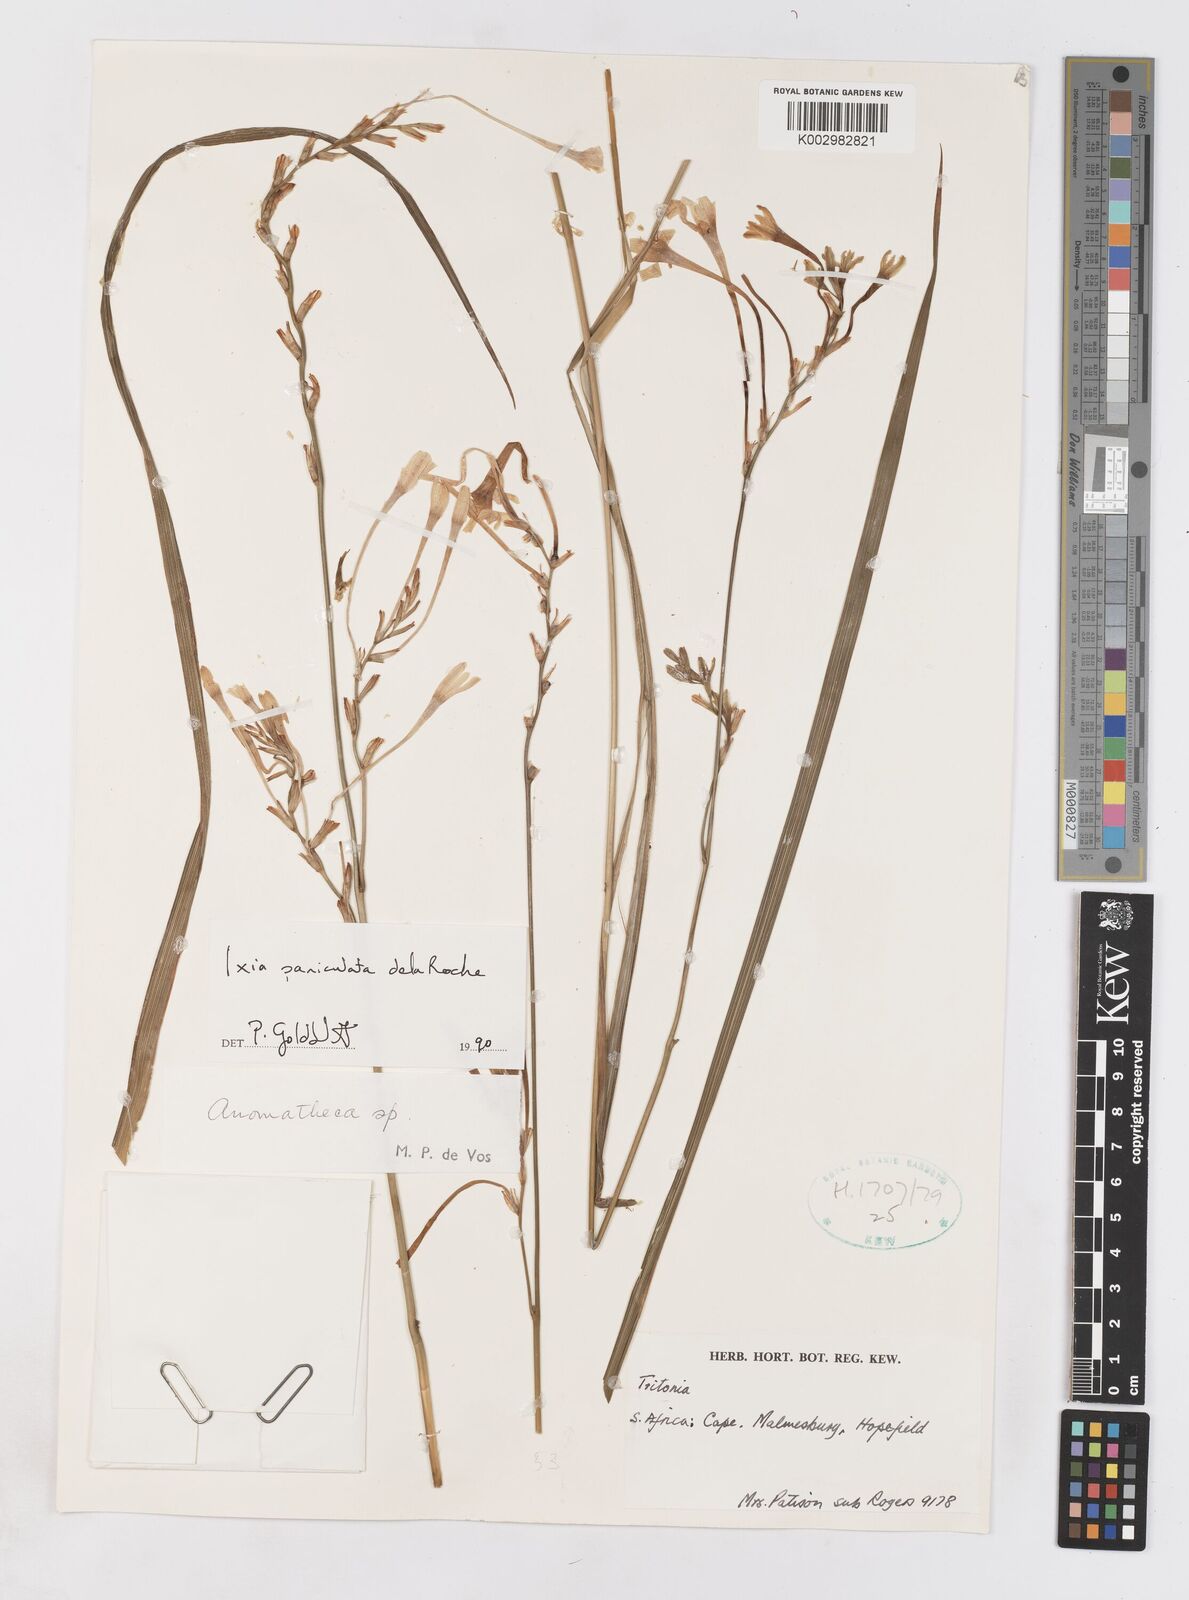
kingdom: Plantae
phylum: Tracheophyta
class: Liliopsida
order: Asparagales
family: Iridaceae
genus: Ixia
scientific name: Ixia paniculata
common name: Tubular corn-lily
